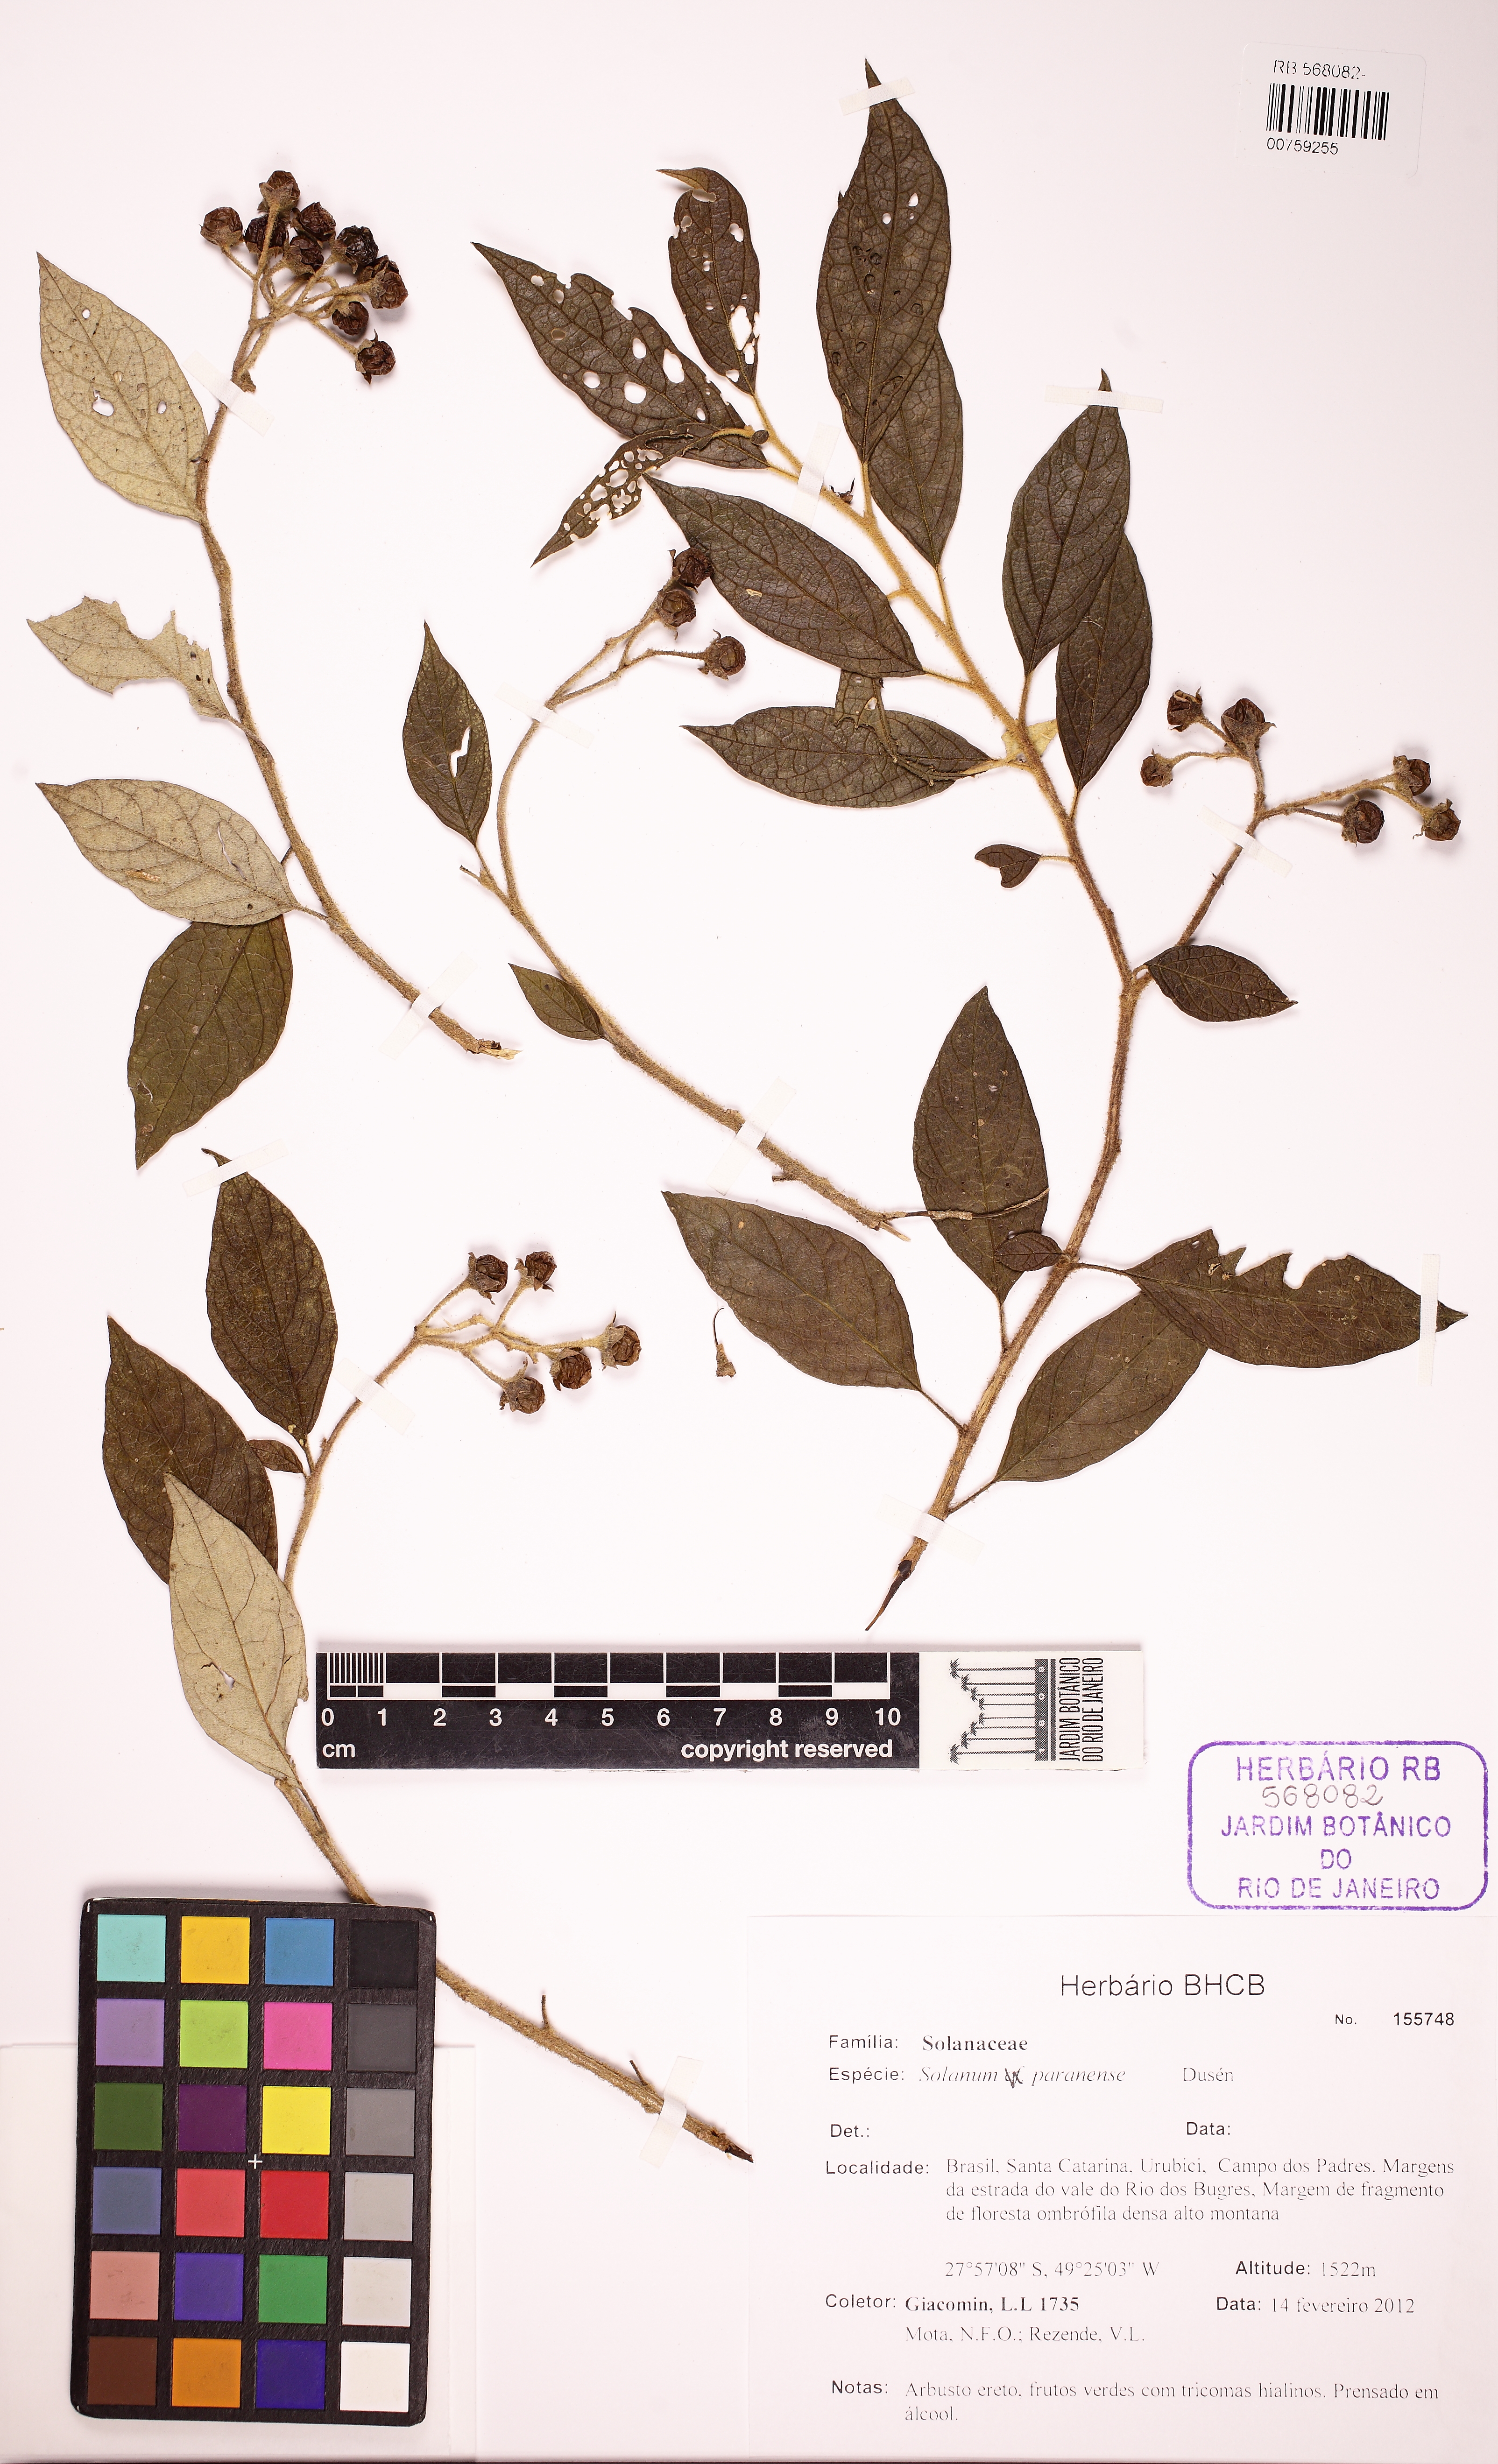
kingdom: Plantae
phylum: Tracheophyta
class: Magnoliopsida
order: Solanales
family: Solanaceae
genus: Solanum
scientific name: Solanum paranense
